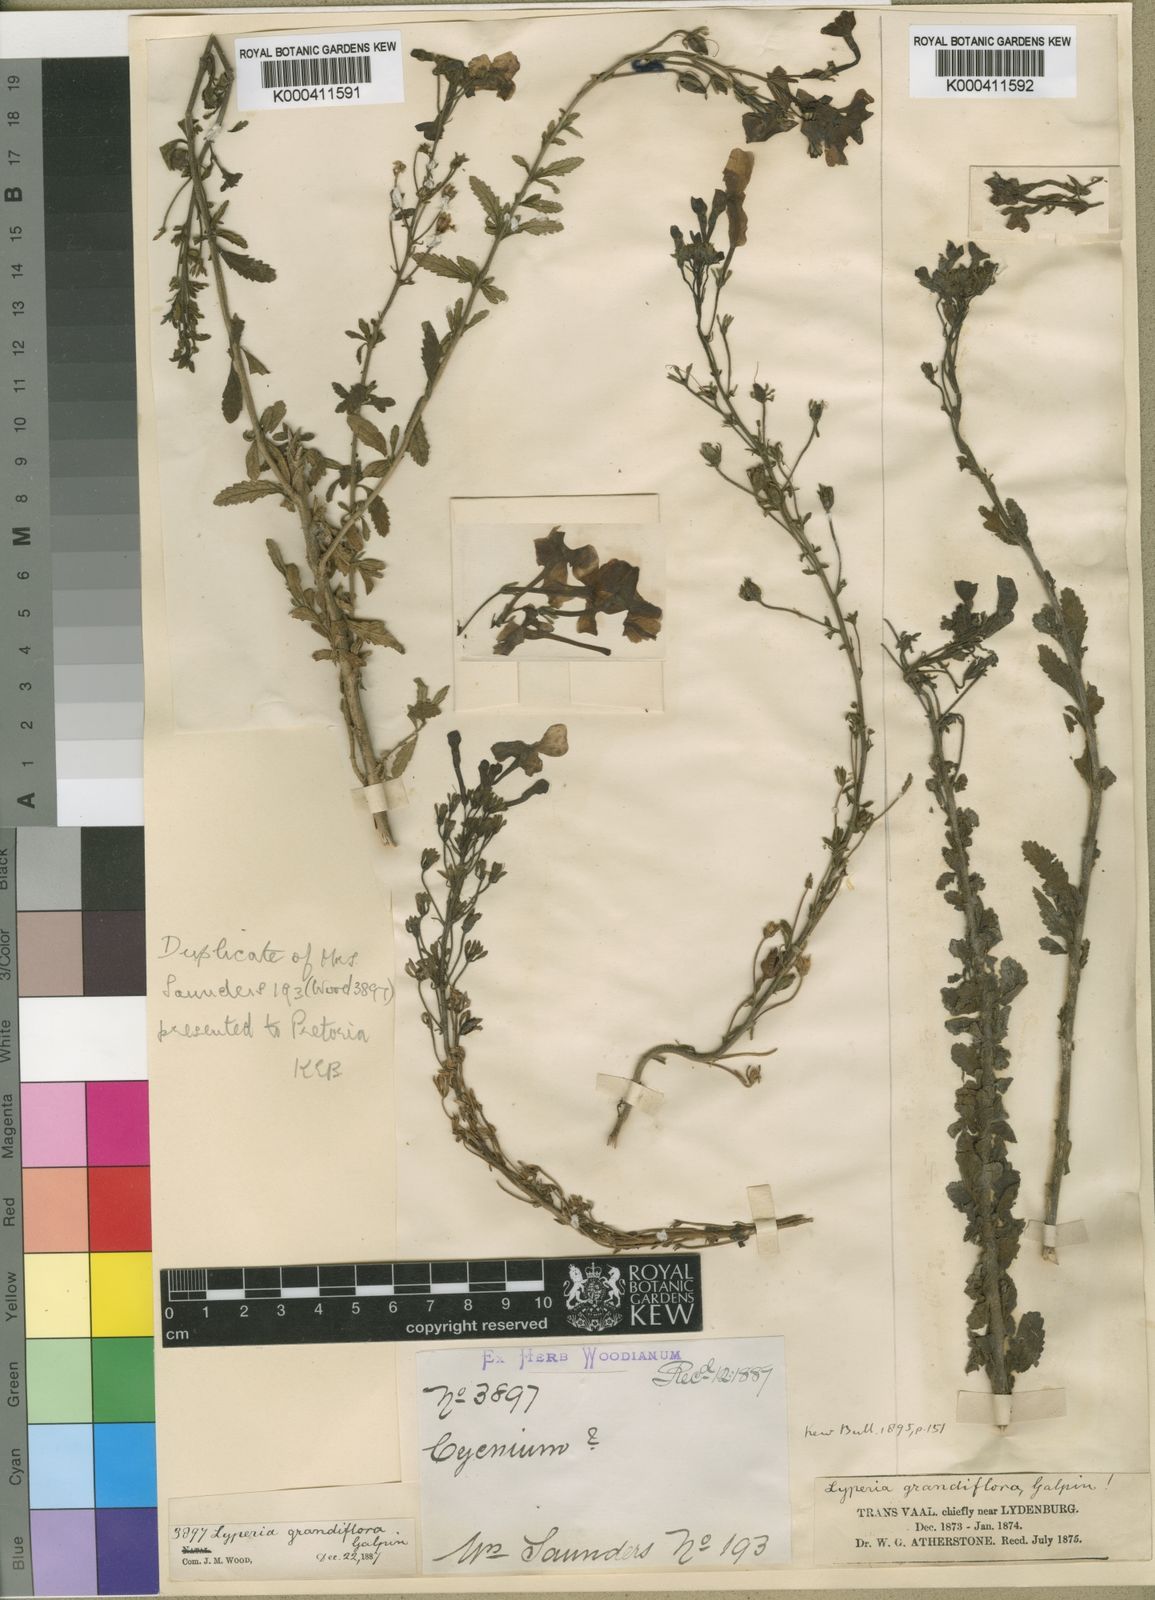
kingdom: Plantae
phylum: Tracheophyta
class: Magnoliopsida
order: Lamiales
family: Scrophulariaceae
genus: Jamesbrittenia
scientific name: Jamesbrittenia grandiflora
